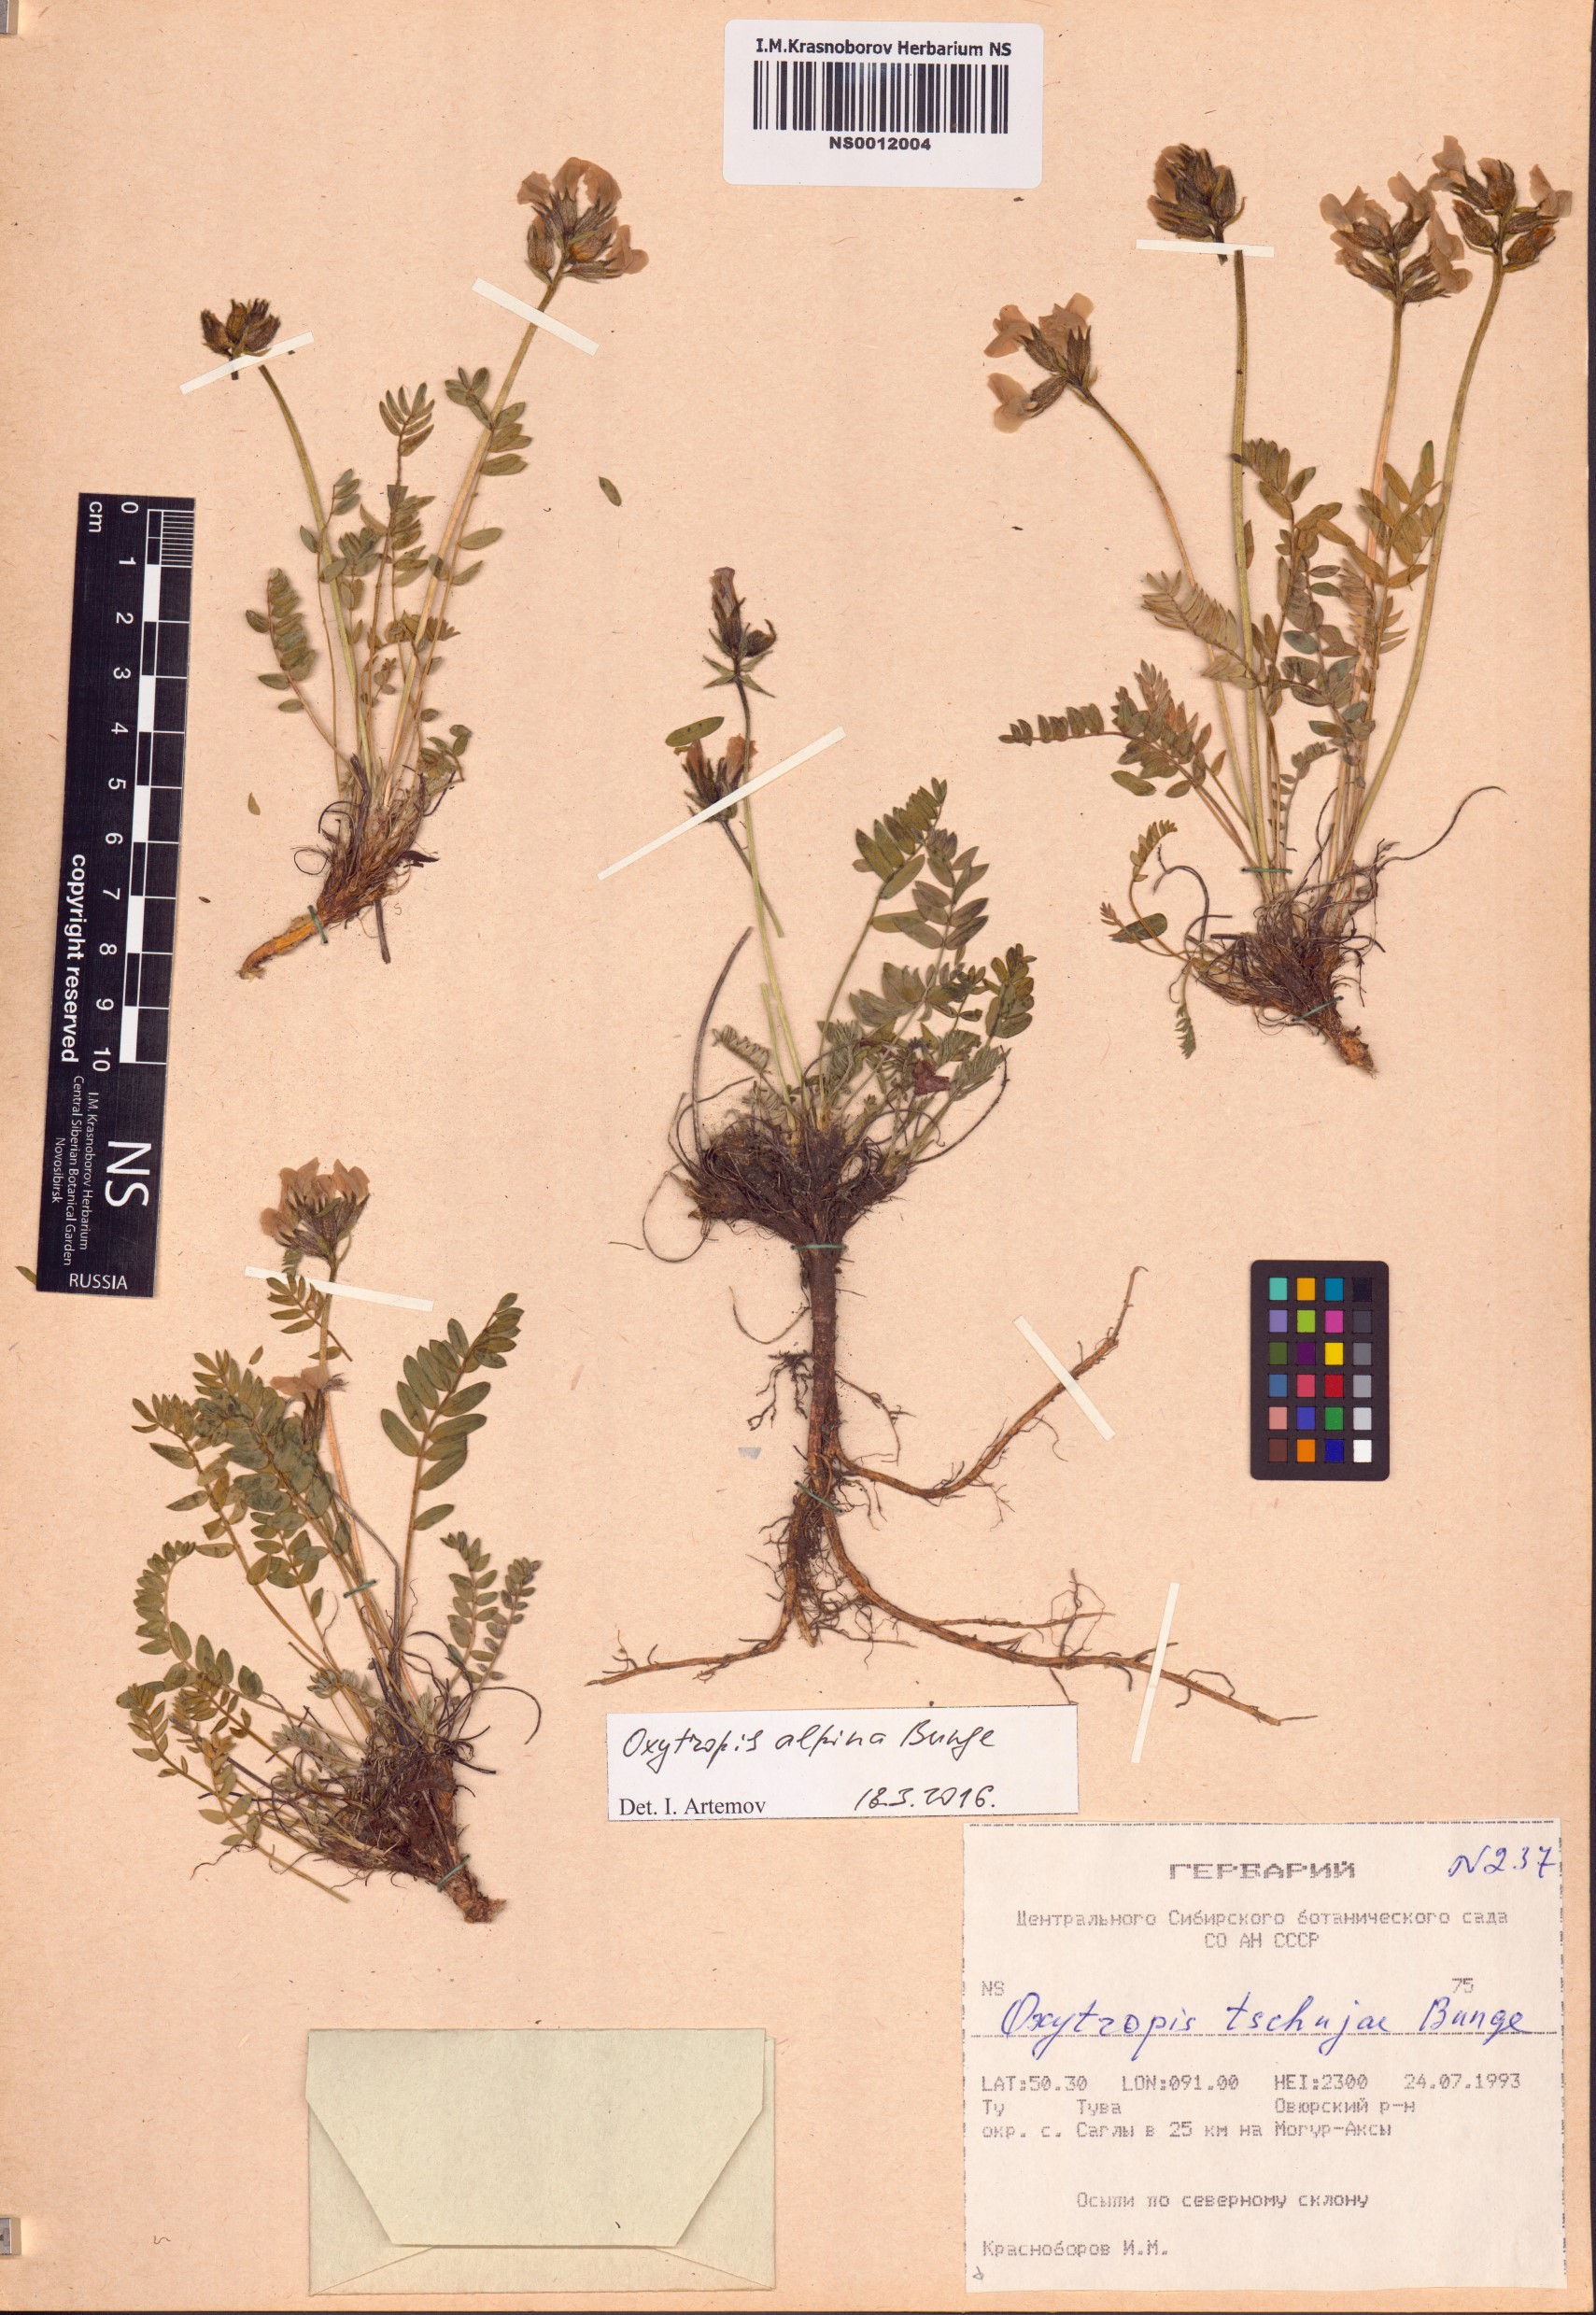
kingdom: Plantae
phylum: Tracheophyta
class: Magnoliopsida
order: Fabales
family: Fabaceae
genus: Oxytropis
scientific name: Oxytropis alpina
